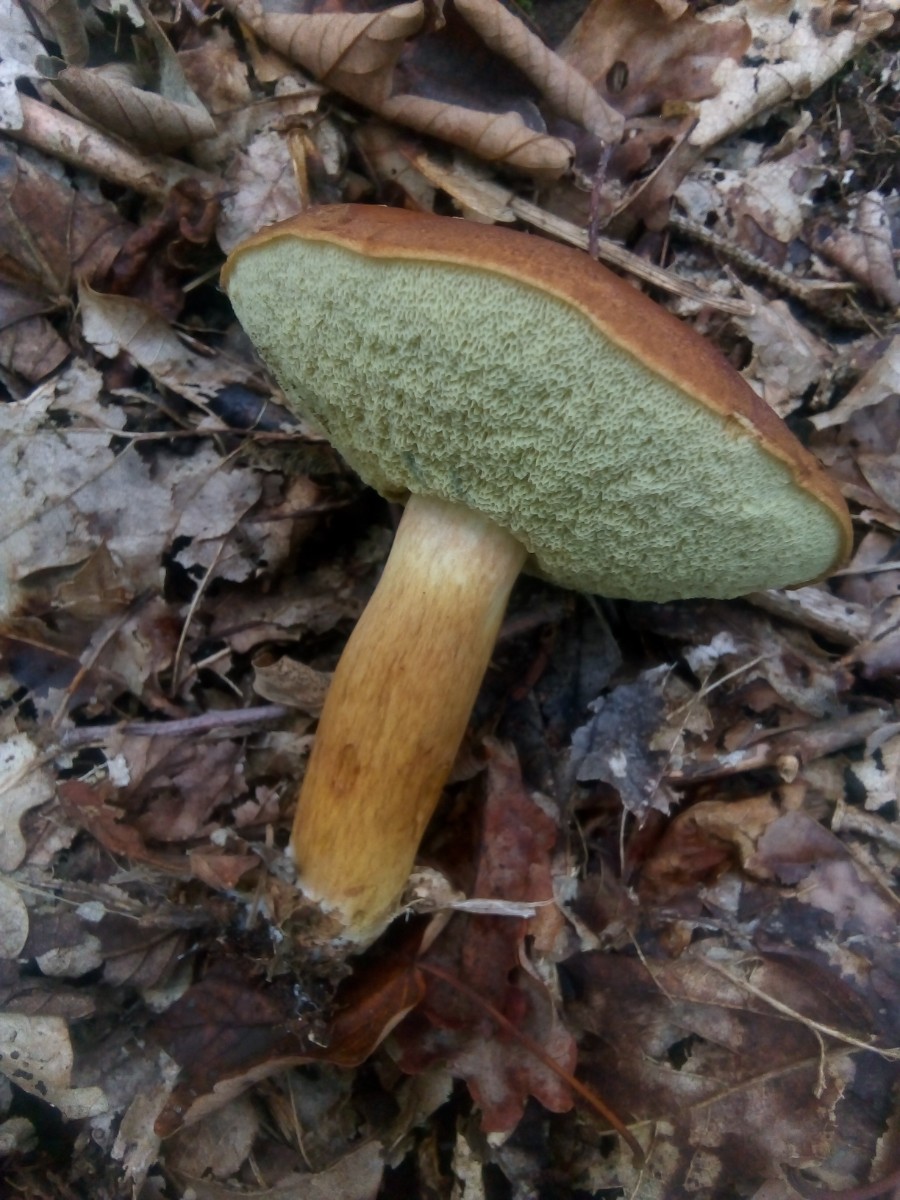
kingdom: Fungi
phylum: Basidiomycota
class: Agaricomycetes
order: Boletales
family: Boletaceae
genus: Imleria
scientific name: Imleria badia
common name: brunstokket rørhat
